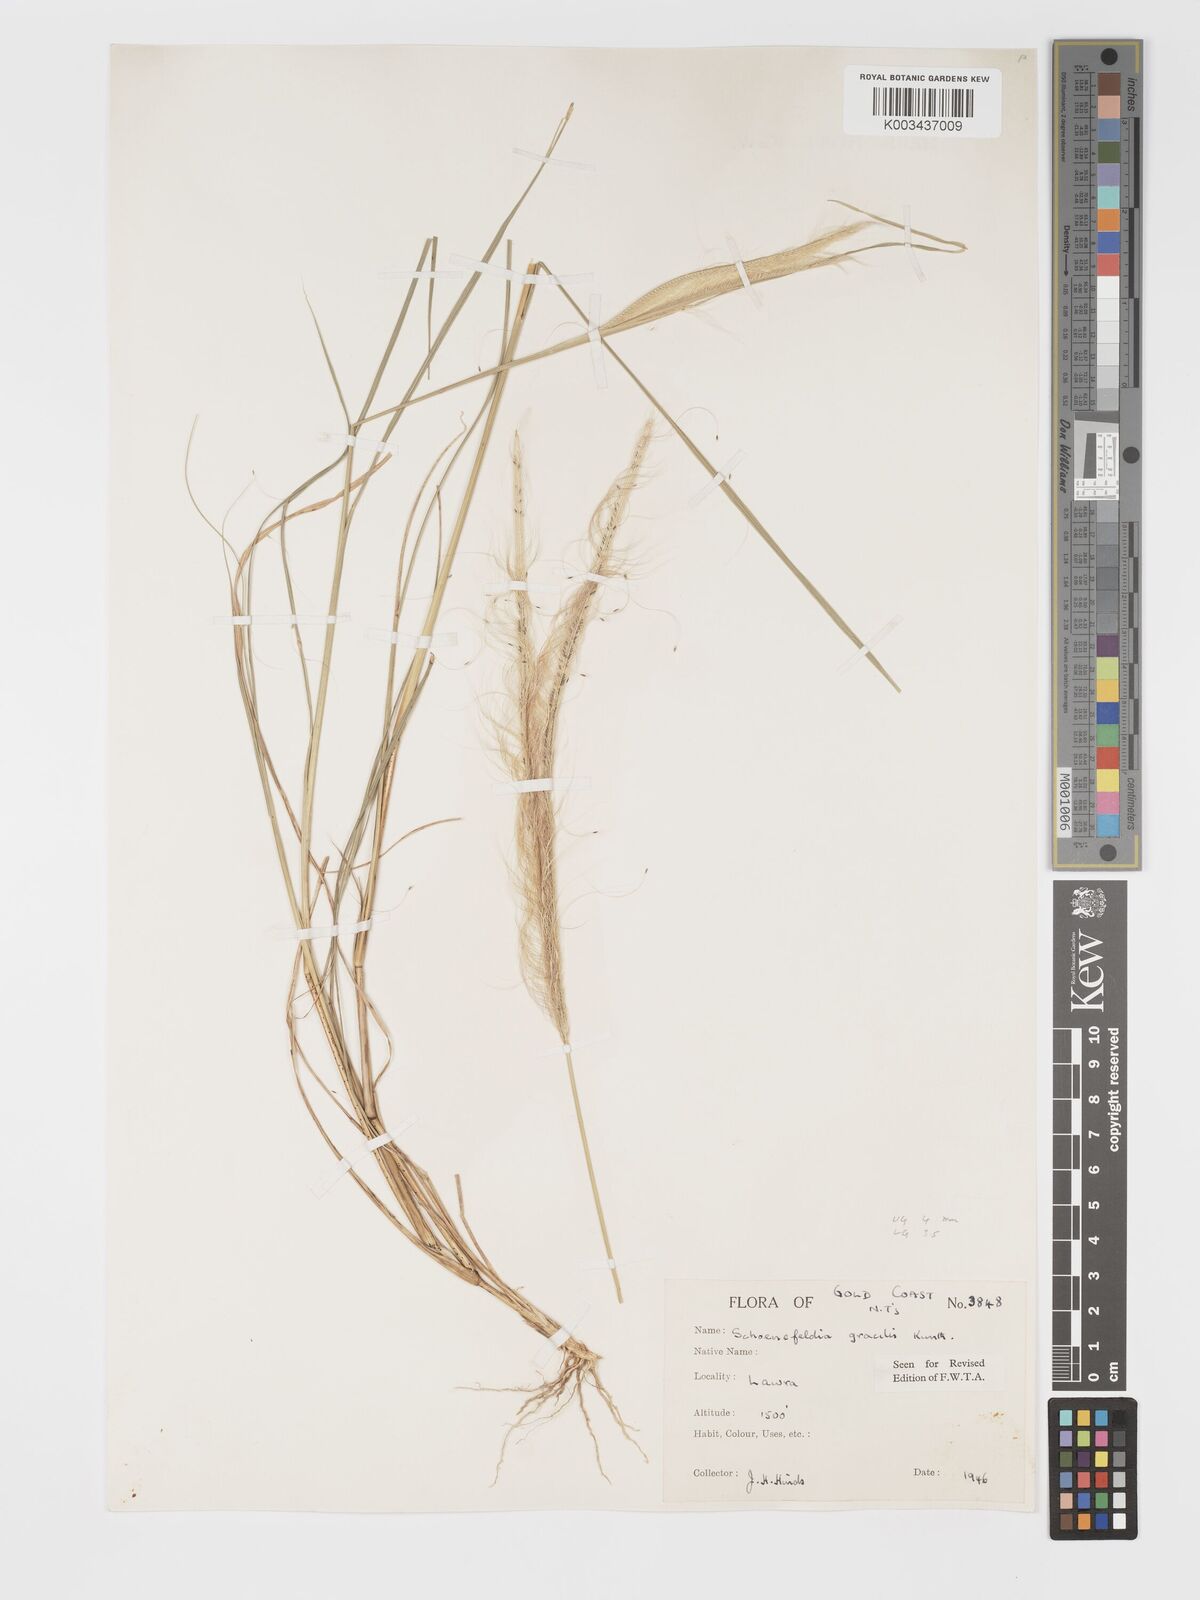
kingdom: Plantae
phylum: Tracheophyta
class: Liliopsida
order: Poales
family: Poaceae
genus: Schoenefeldia
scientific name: Schoenefeldia gracilis
